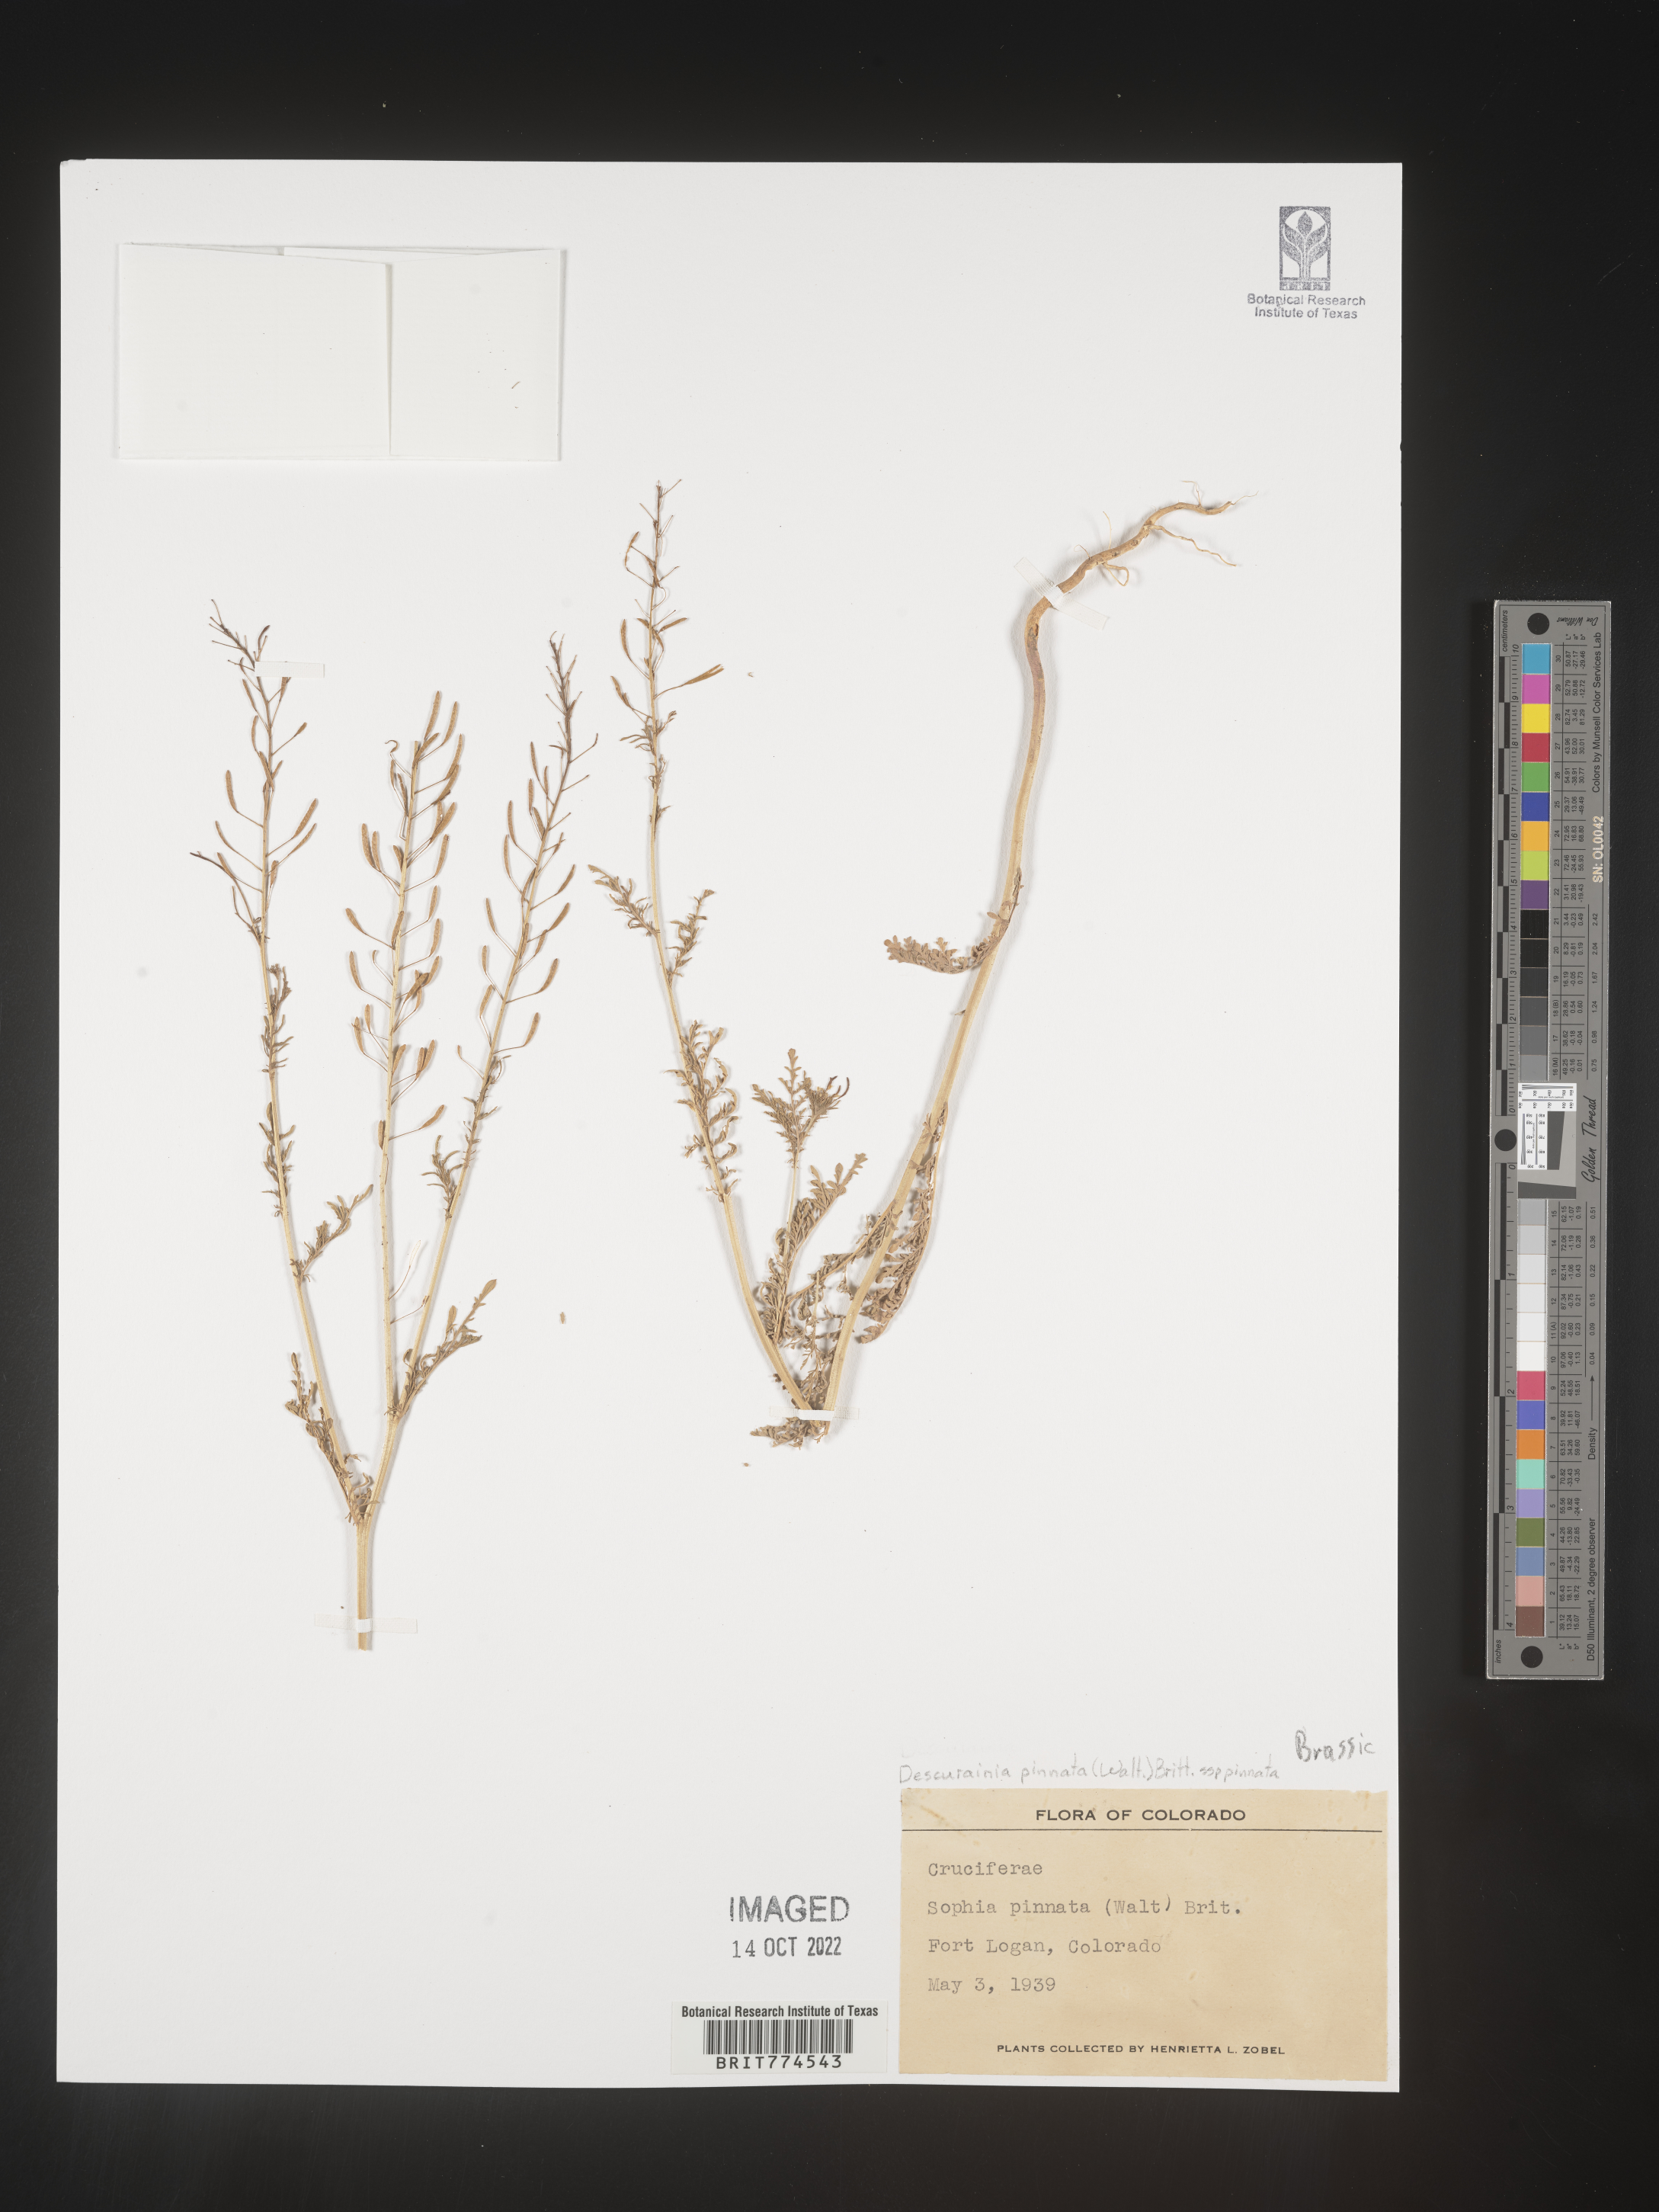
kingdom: Plantae
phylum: Tracheophyta
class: Magnoliopsida
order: Brassicales
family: Brassicaceae
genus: Descurainia
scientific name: Descurainia pinnata
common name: Western tansy mustard
